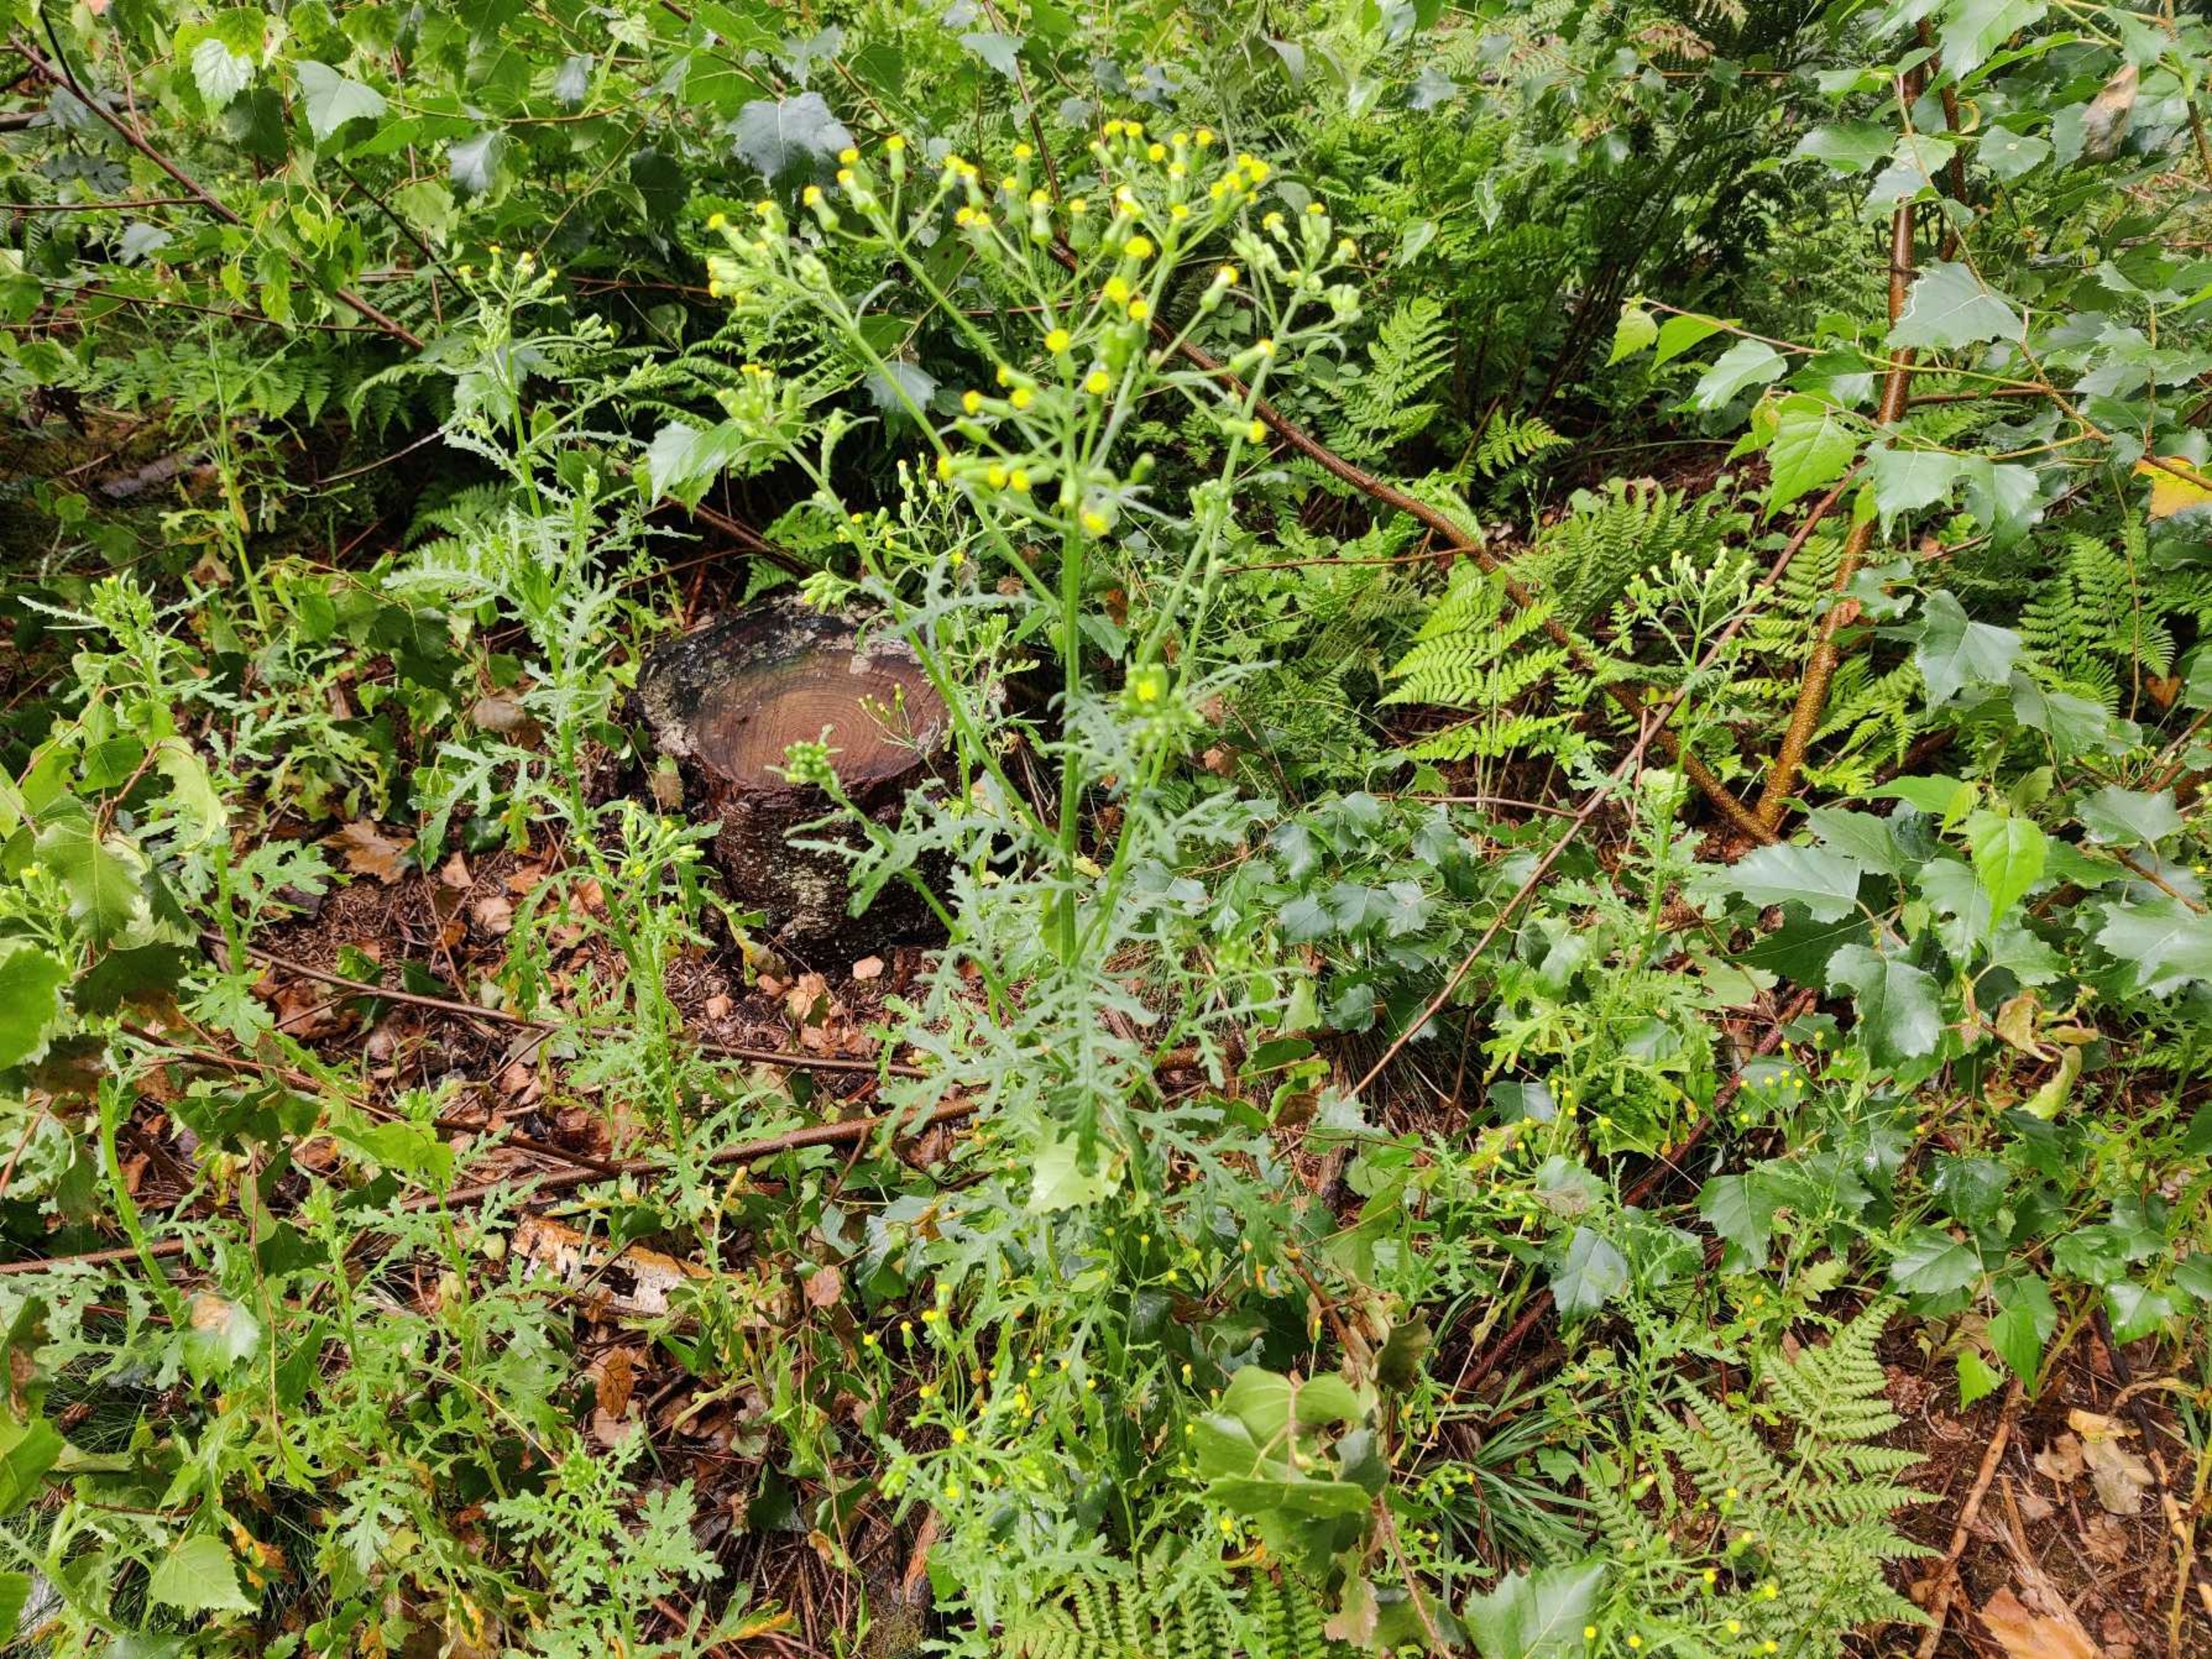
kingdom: Plantae
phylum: Tracheophyta
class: Magnoliopsida
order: Asterales
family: Asteraceae
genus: Senecio
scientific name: Senecio sylvaticus
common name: Skov-brandbæger
